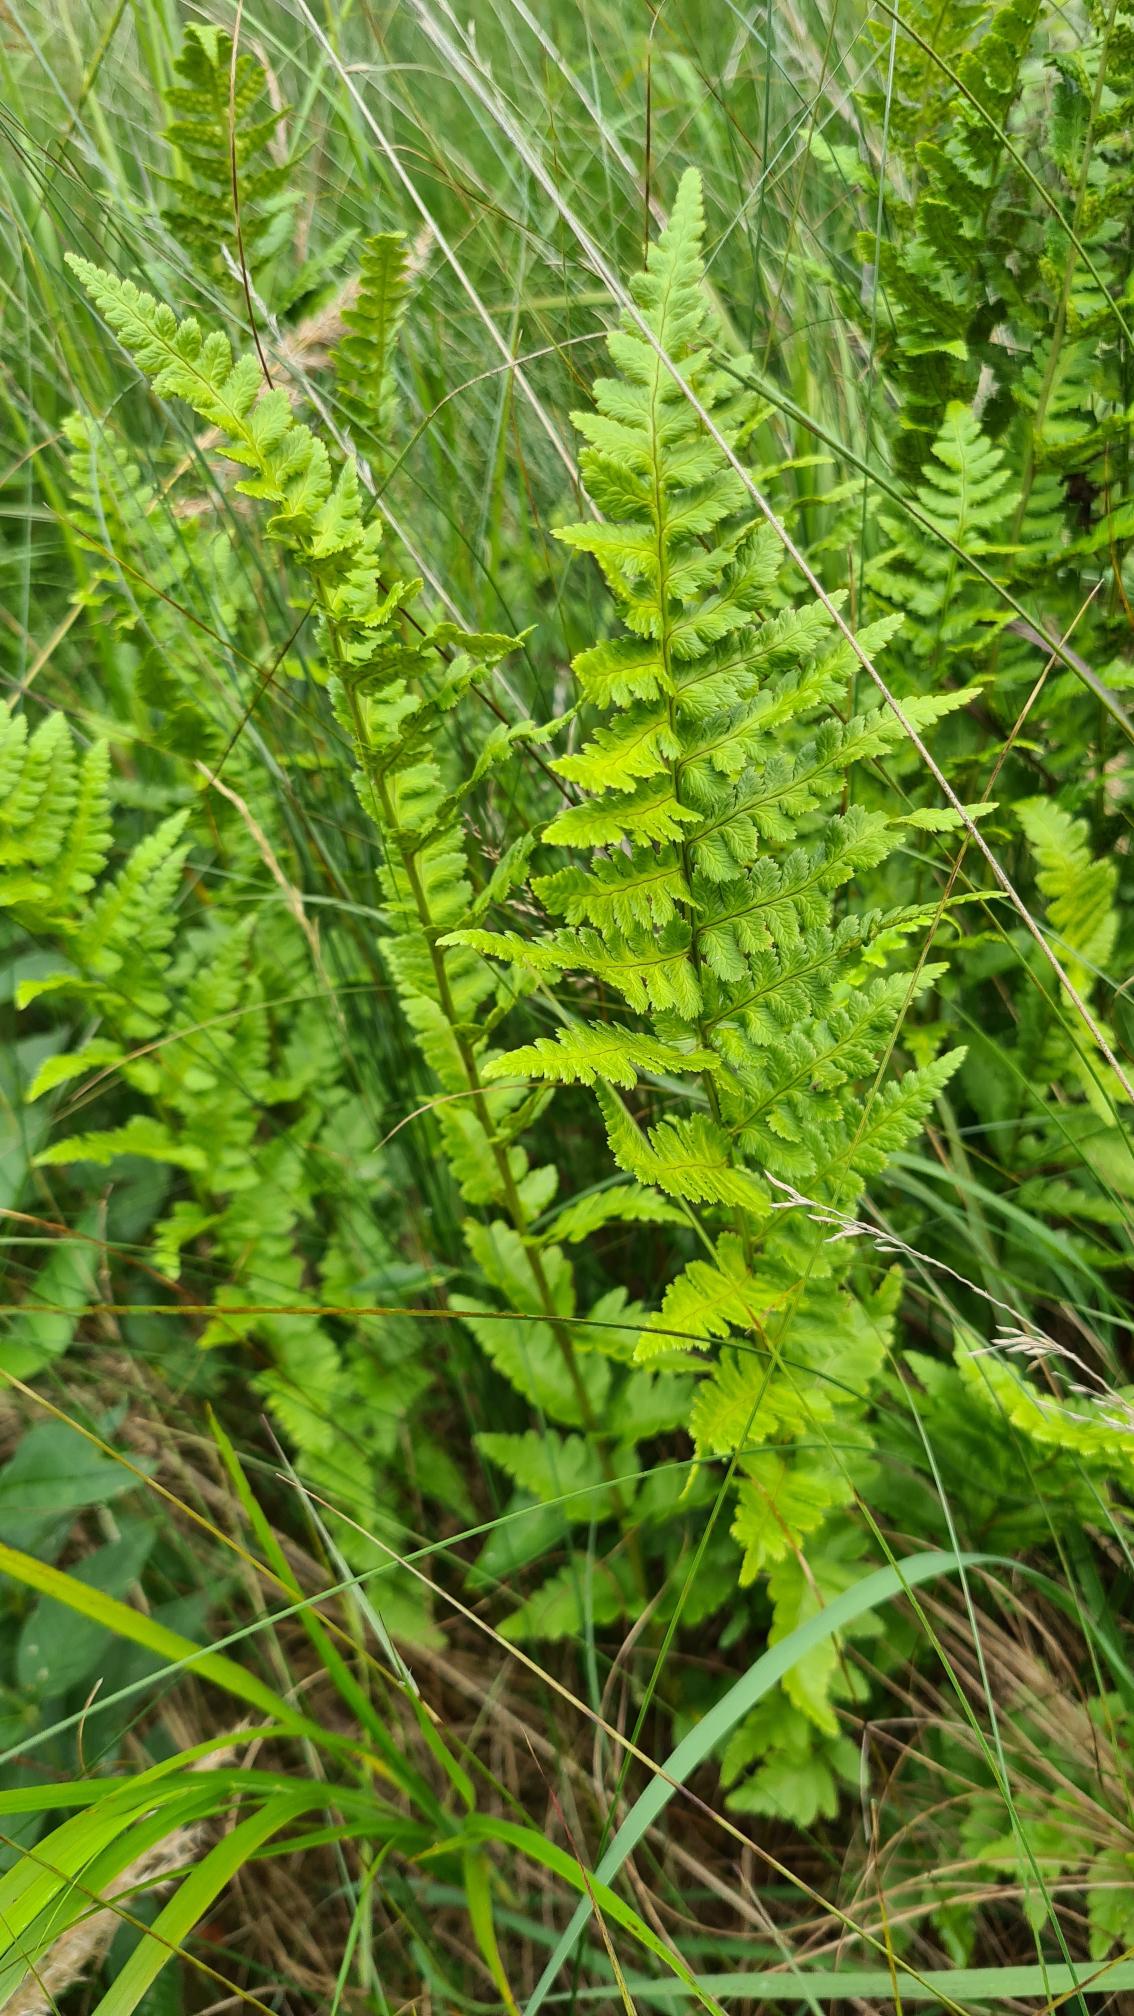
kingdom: Plantae
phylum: Tracheophyta
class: Polypodiopsida
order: Polypodiales
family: Dryopteridaceae
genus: Dryopteris
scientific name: Dryopteris cristata
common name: Butfinnet mangeløv
